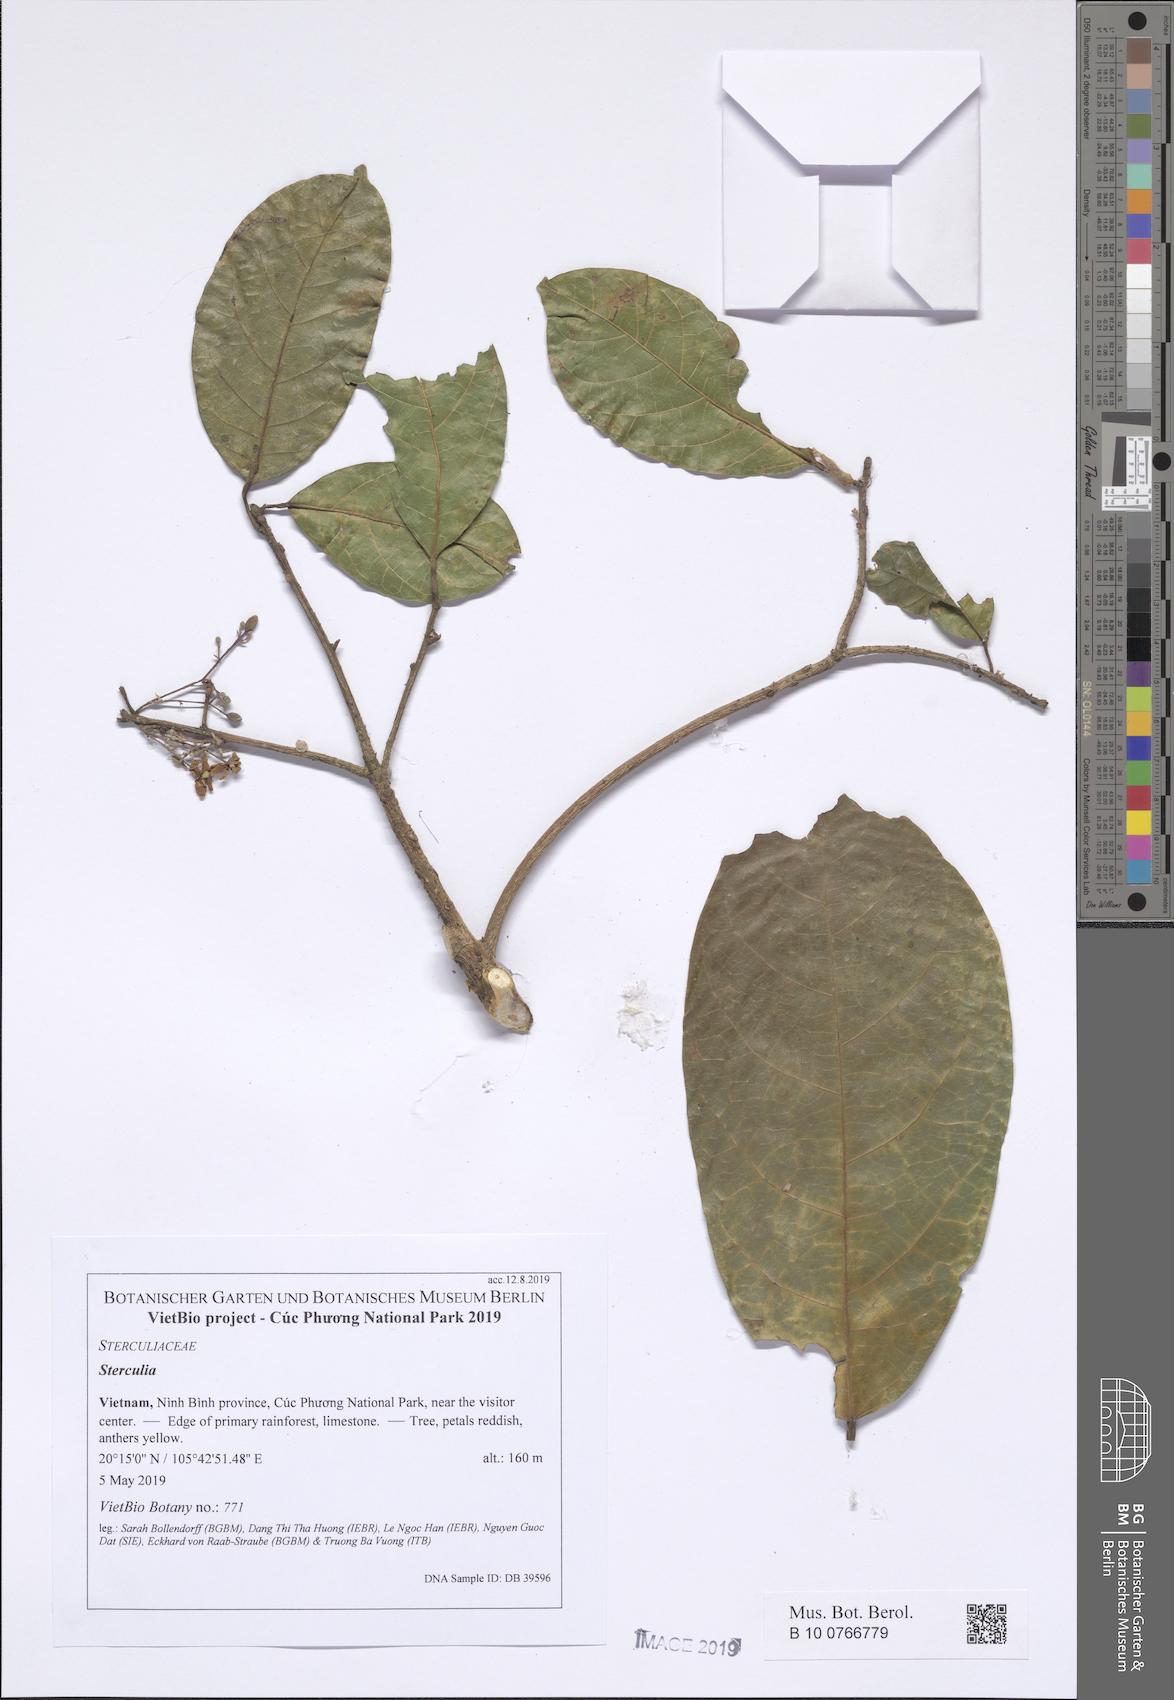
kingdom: Plantae
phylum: Tracheophyta
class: Magnoliopsida
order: Malvales
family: Malvaceae
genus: Sterculia
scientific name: Sterculia lanceolata
